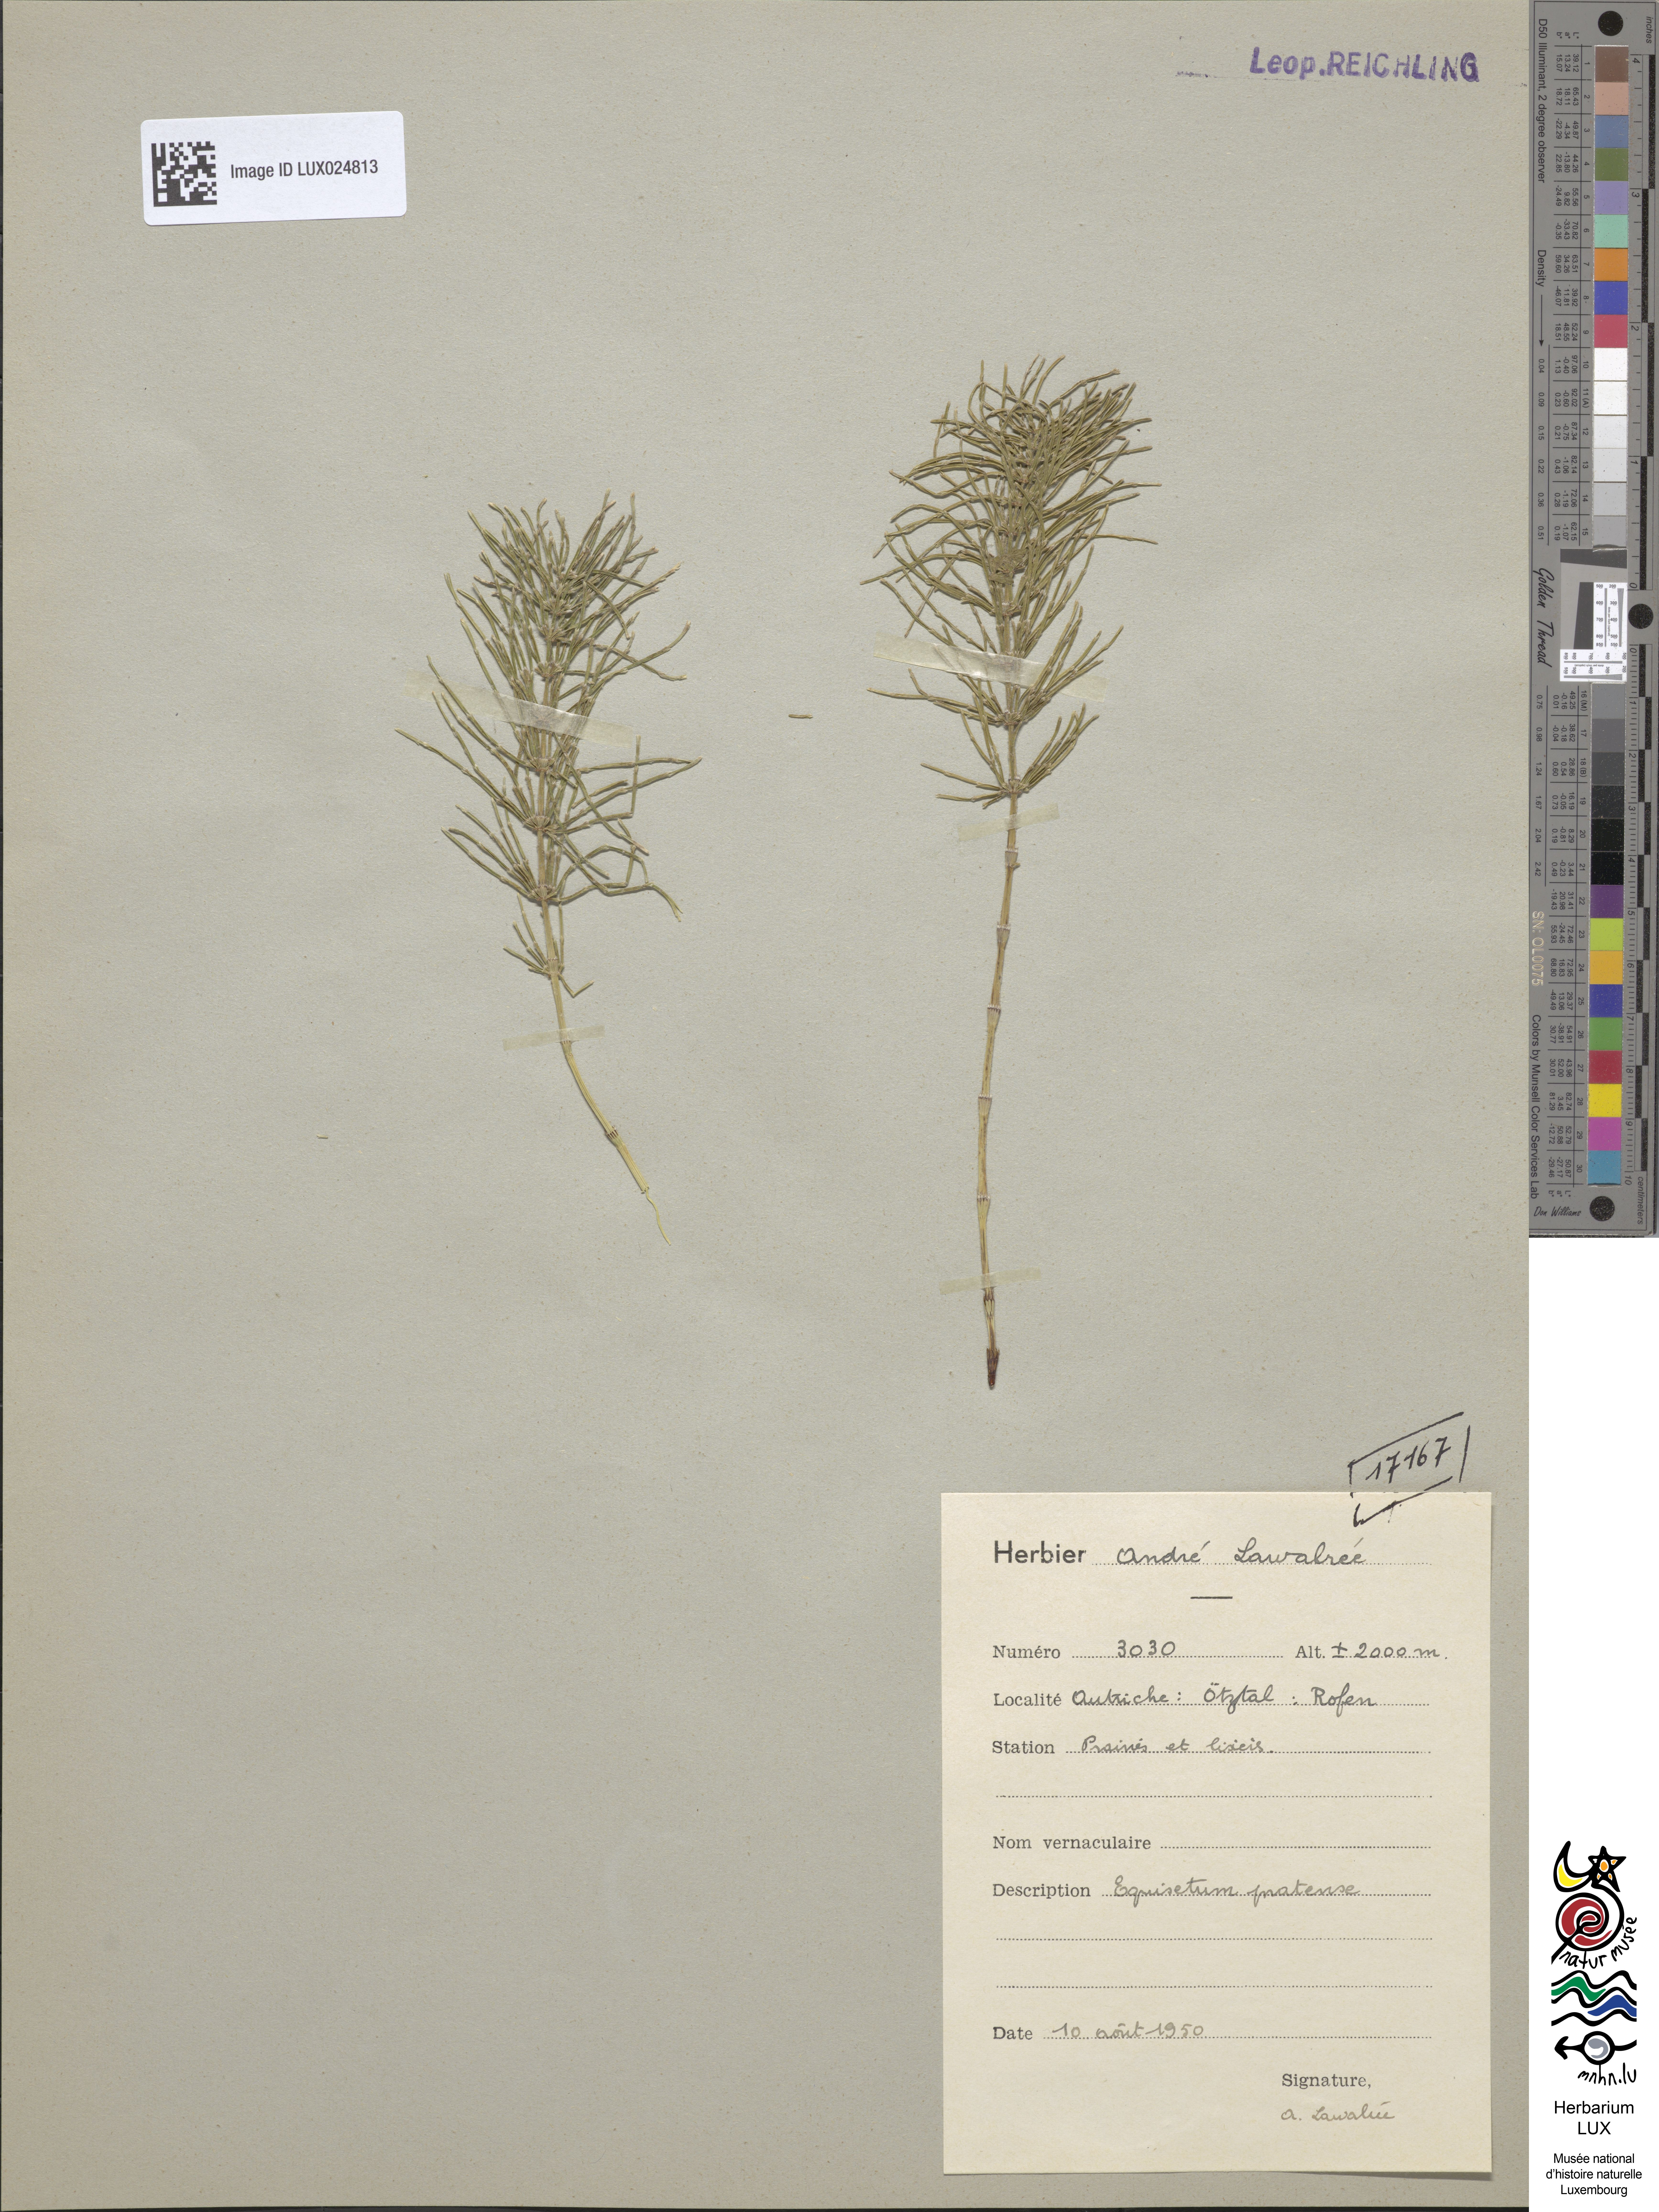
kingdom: Plantae
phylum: Tracheophyta
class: Polypodiopsida
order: Equisetales
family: Equisetaceae
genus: Equisetum
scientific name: Equisetum pratense
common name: Meadow horsetail
